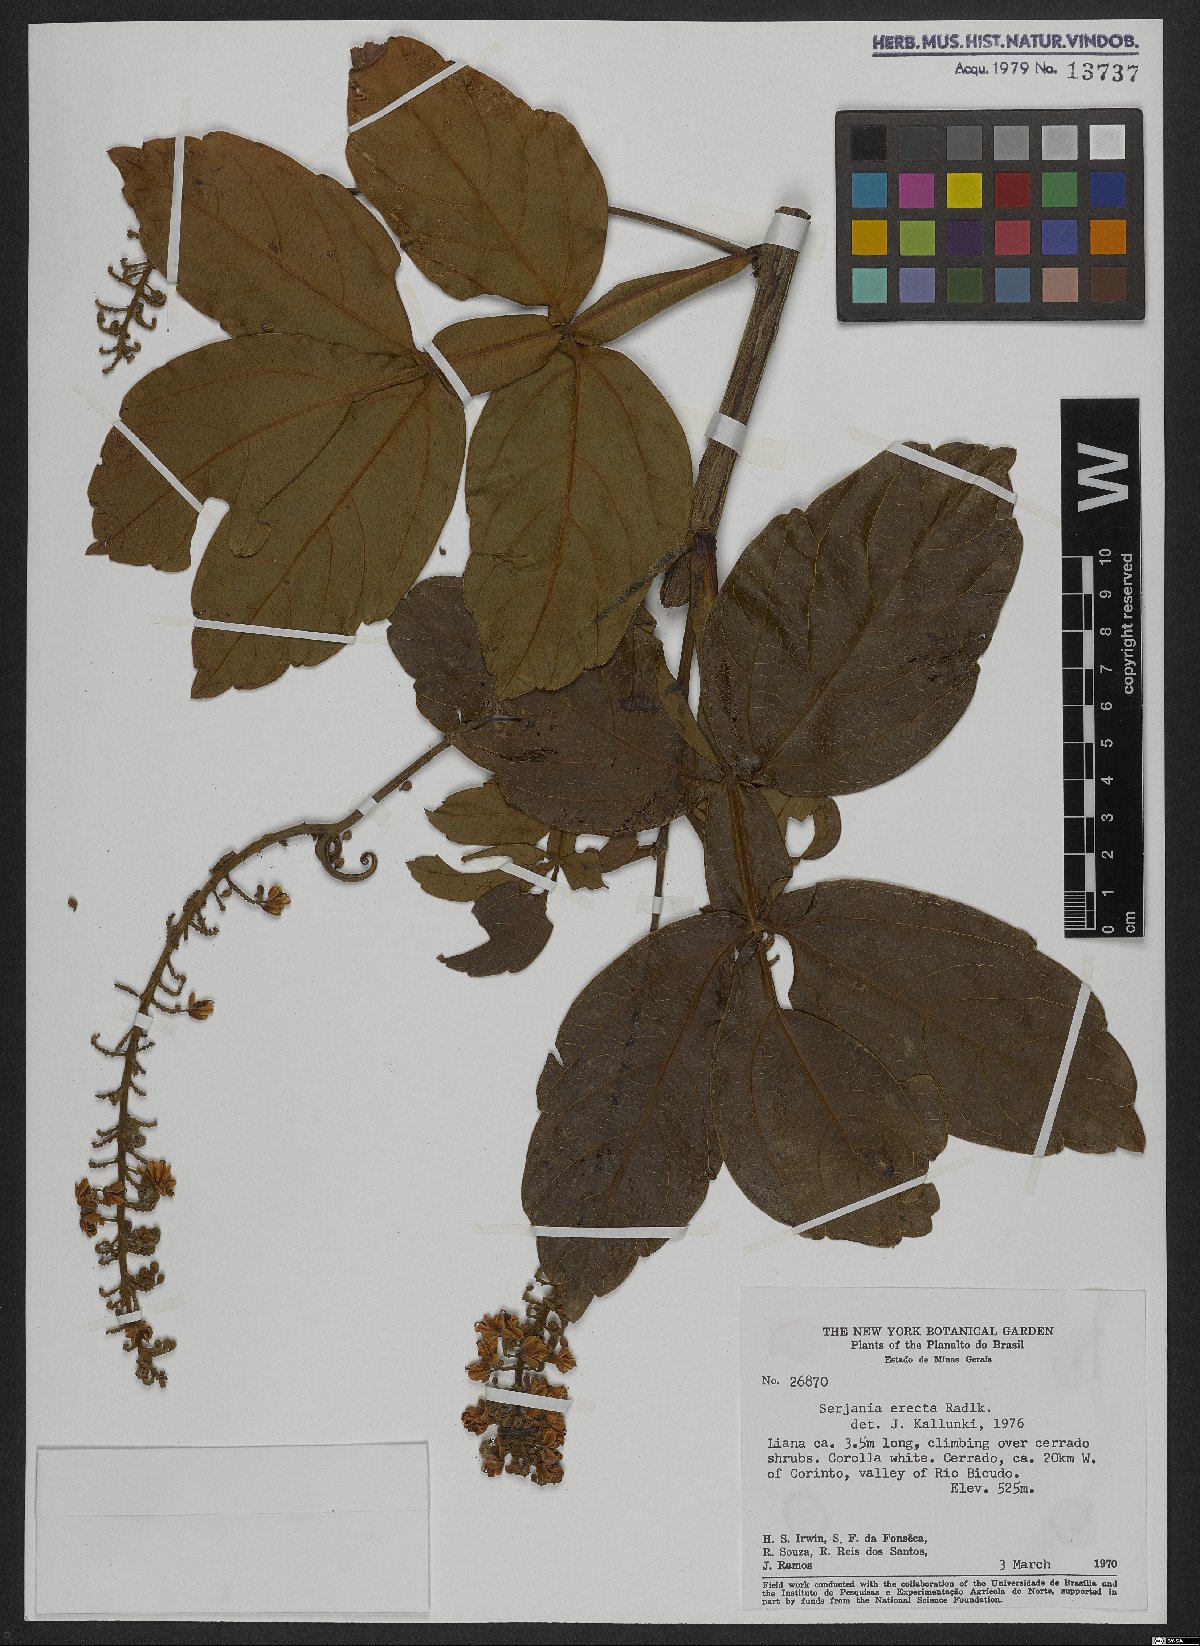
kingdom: Plantae
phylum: Tracheophyta
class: Magnoliopsida
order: Sapindales
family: Sapindaceae
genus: Serjania
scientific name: Serjania erecta
